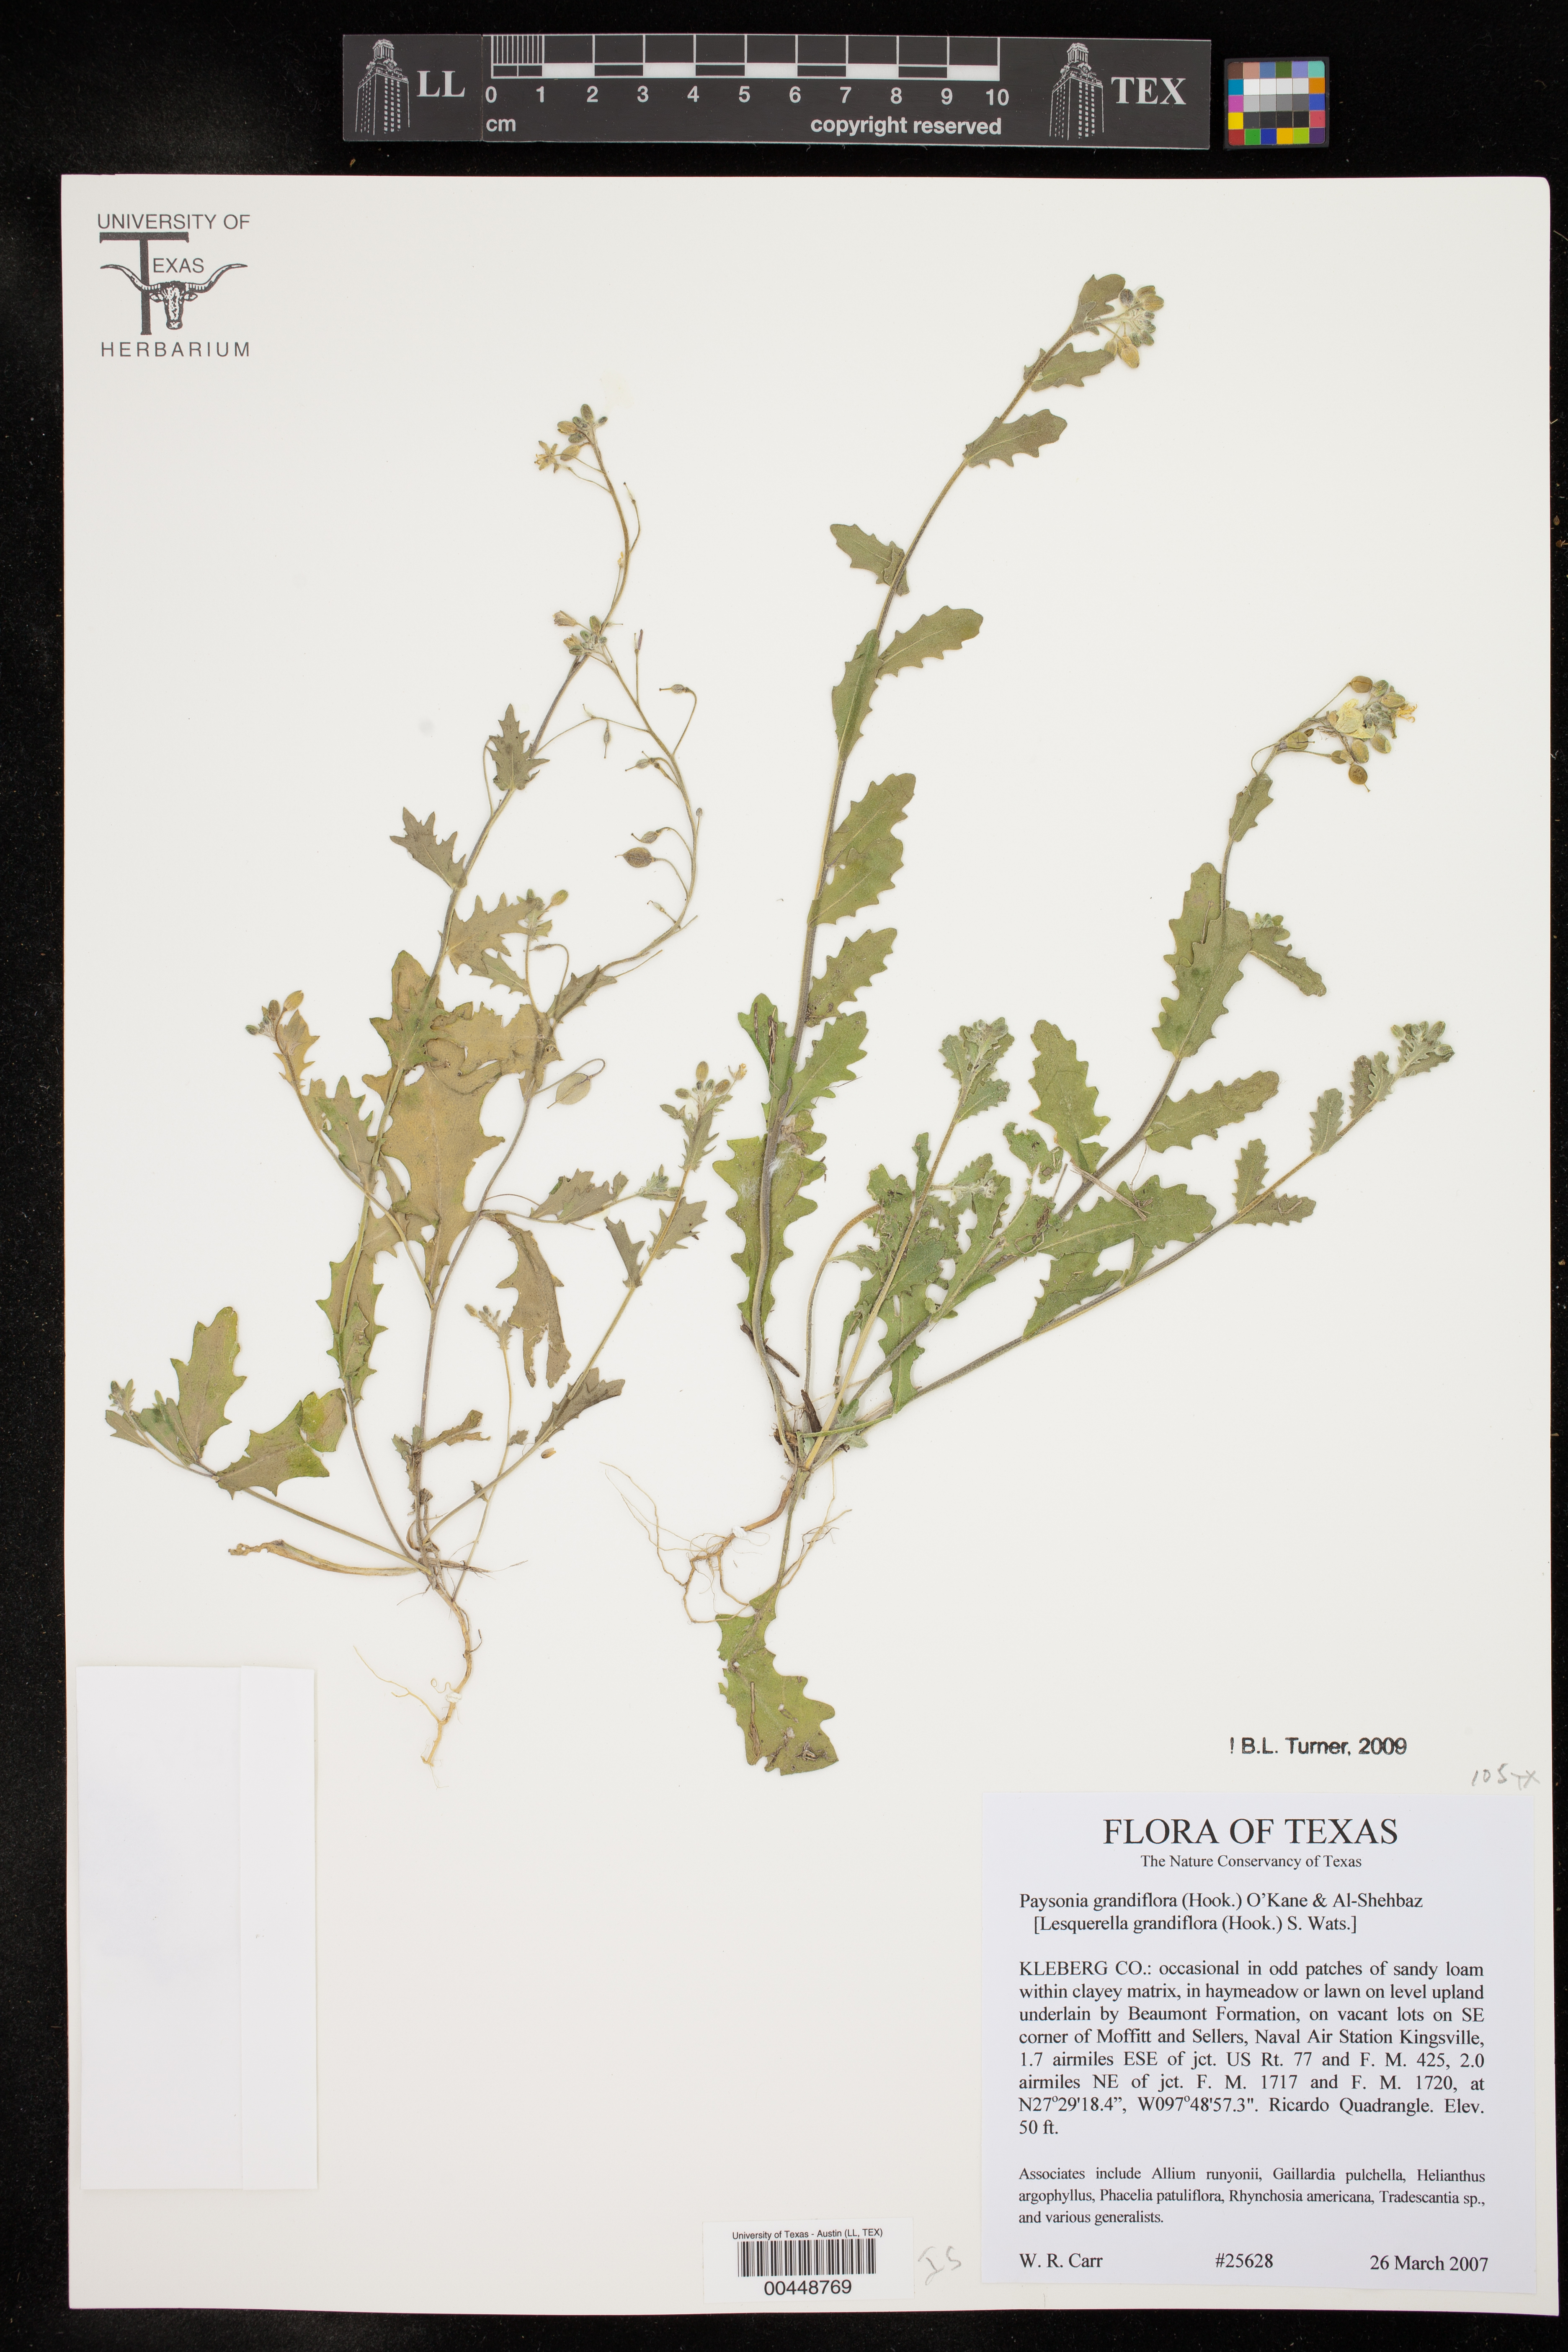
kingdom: Plantae
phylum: Tracheophyta
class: Magnoliopsida
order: Brassicales
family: Brassicaceae
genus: Paysonia
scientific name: Paysonia grandiflora
